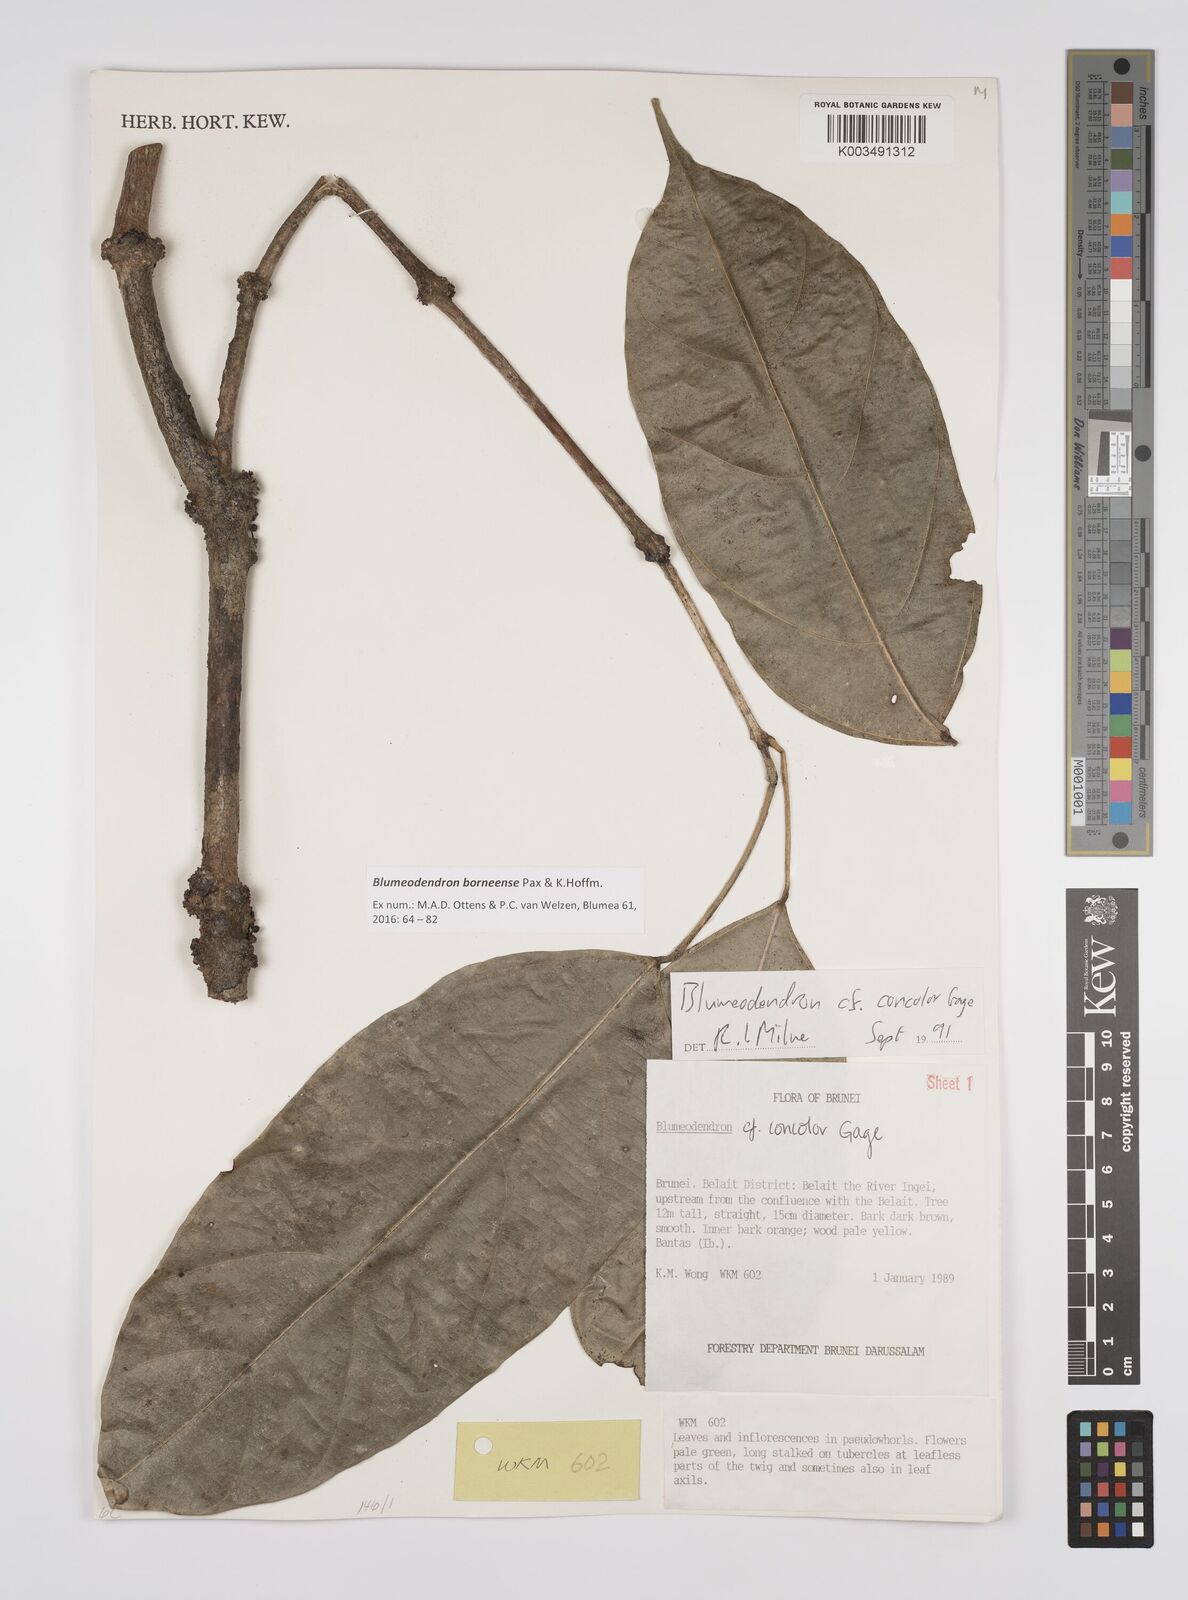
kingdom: Plantae
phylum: Tracheophyta
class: Magnoliopsida
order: Malpighiales
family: Euphorbiaceae
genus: Blumeodendron
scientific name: Blumeodendron borneense
